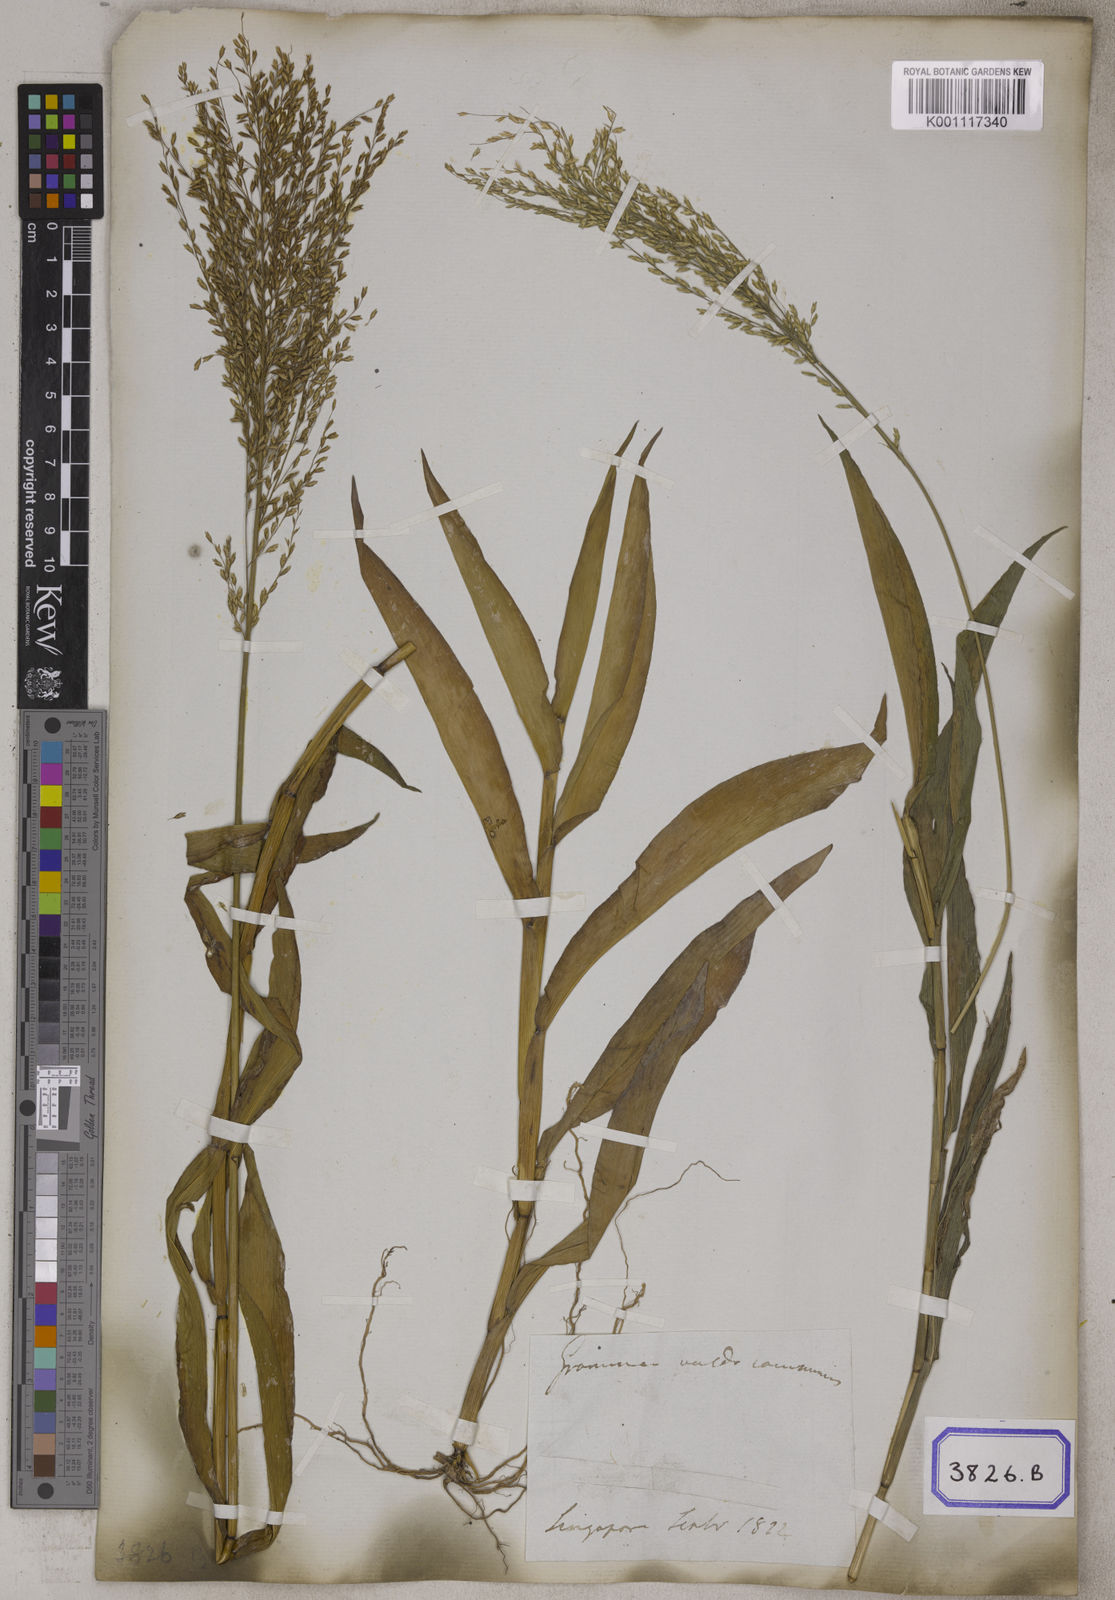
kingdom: Plantae
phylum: Tracheophyta
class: Liliopsida
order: Poales
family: Poaceae
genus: Centotheca
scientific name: Centotheca lappacea
